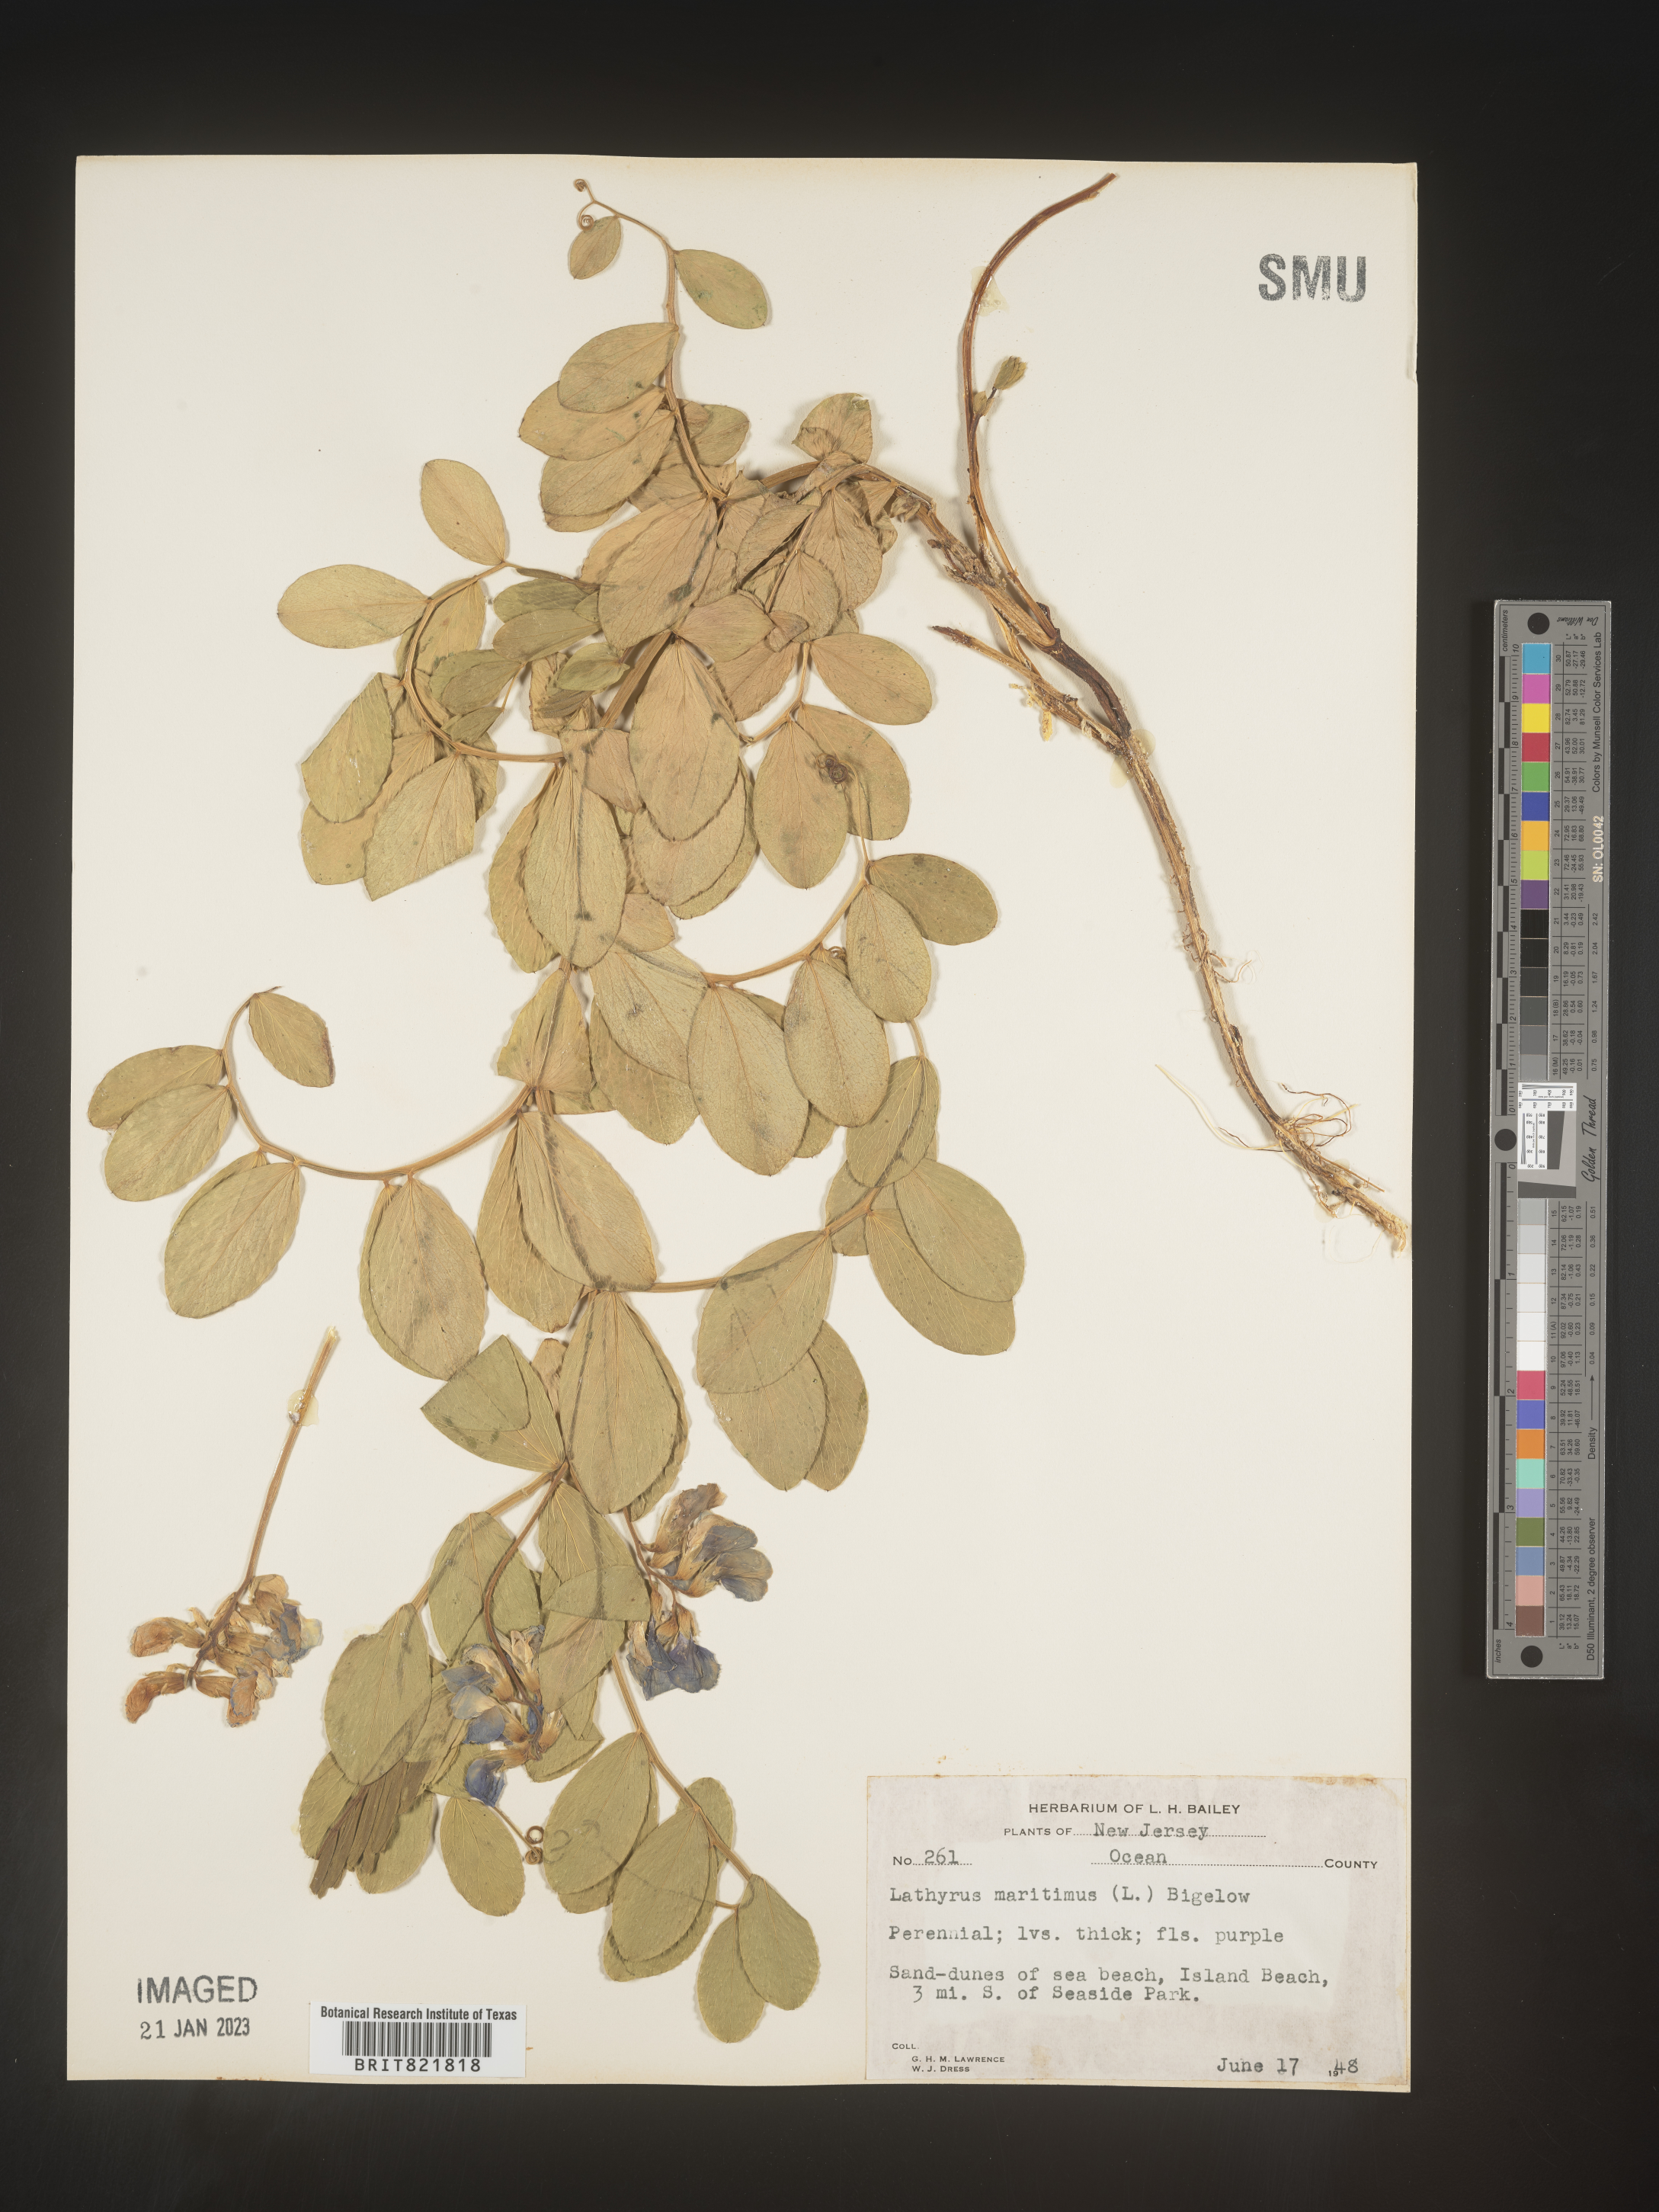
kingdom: Plantae
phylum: Tracheophyta
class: Magnoliopsida
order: Fabales
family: Fabaceae
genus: Lathyrus
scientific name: Lathyrus japonicus
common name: Sea pea
